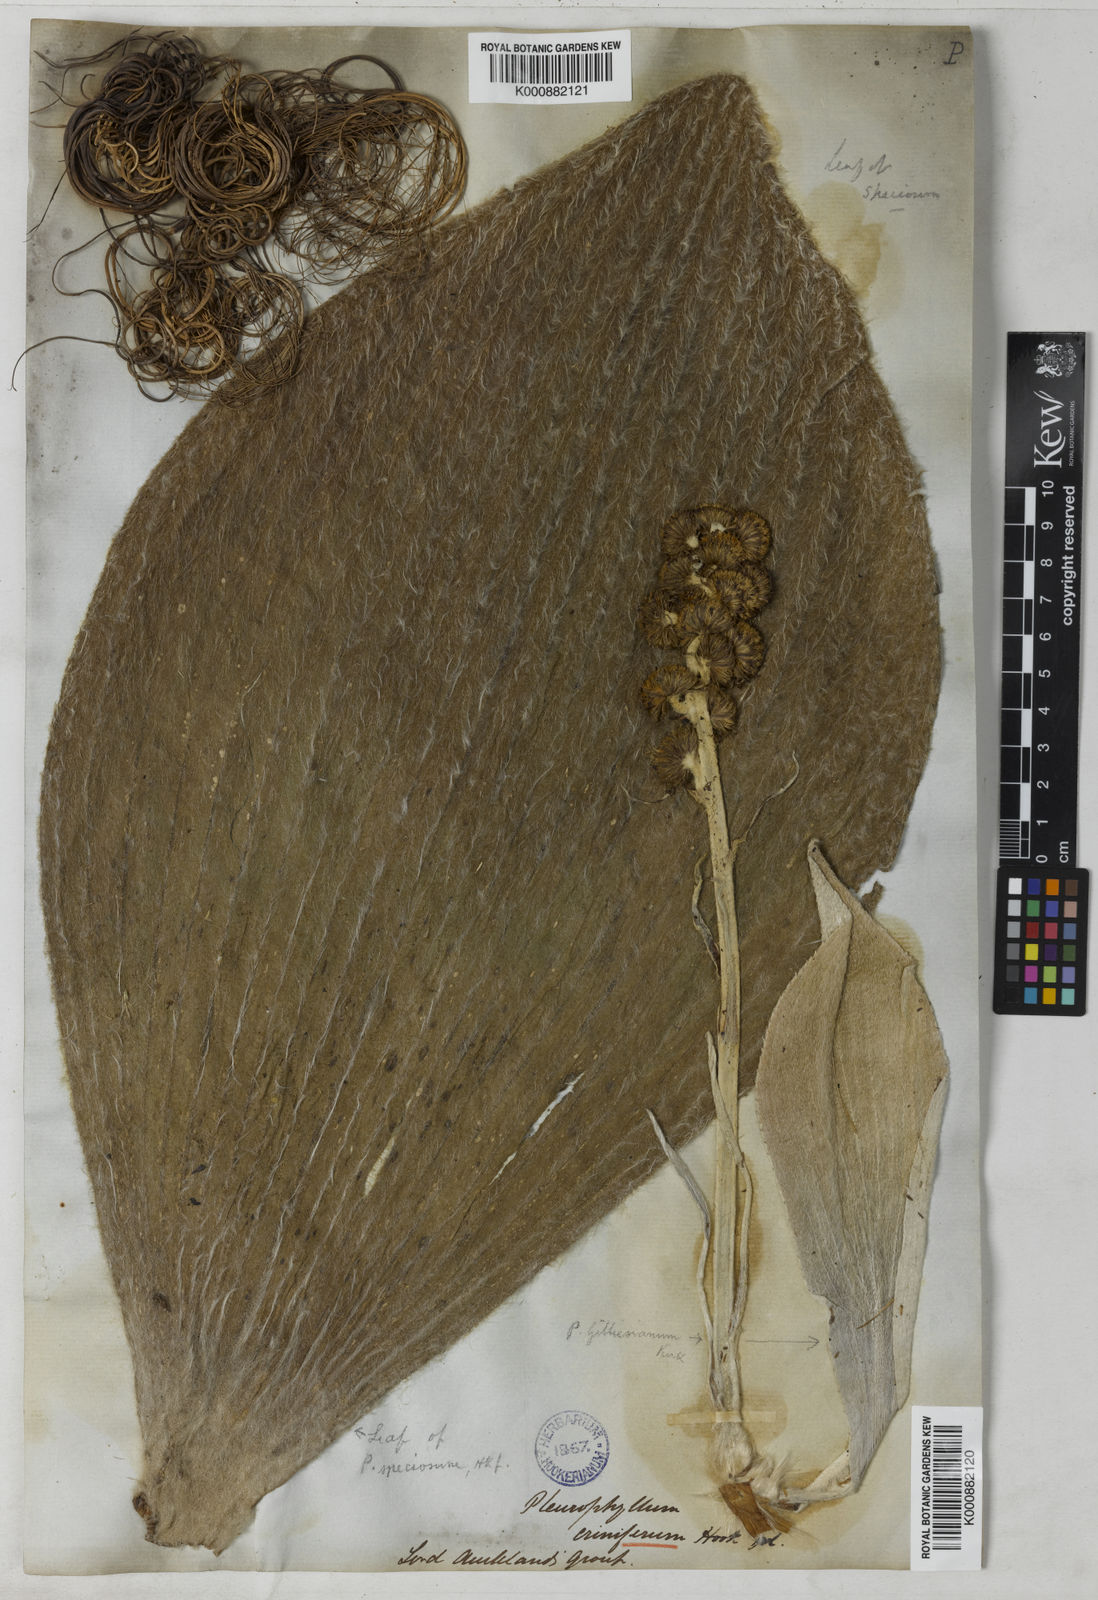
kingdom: Plantae
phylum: Tracheophyta
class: Magnoliopsida
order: Asterales
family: Asteraceae
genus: Pleurophyllum
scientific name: Pleurophyllum speciosum
